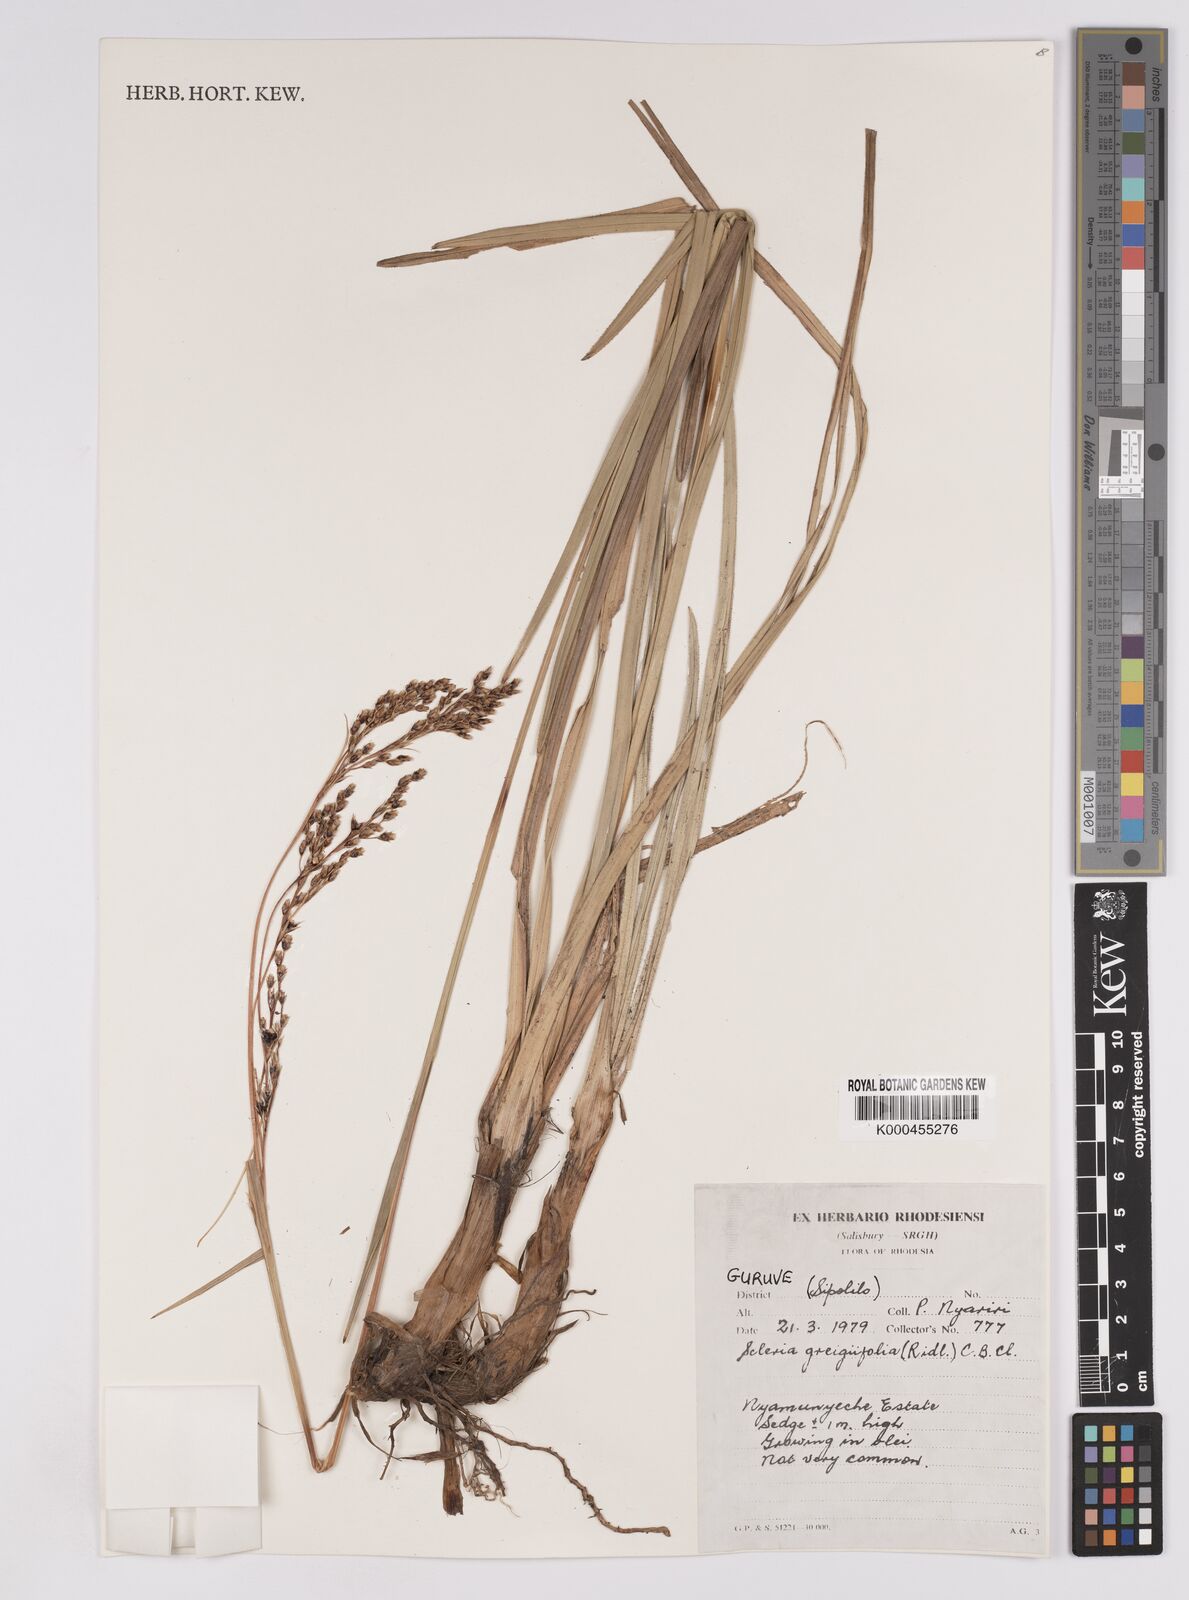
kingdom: Plantae
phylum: Tracheophyta
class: Liliopsida
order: Poales
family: Cyperaceae
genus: Scleria
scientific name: Scleria greigiifolia
